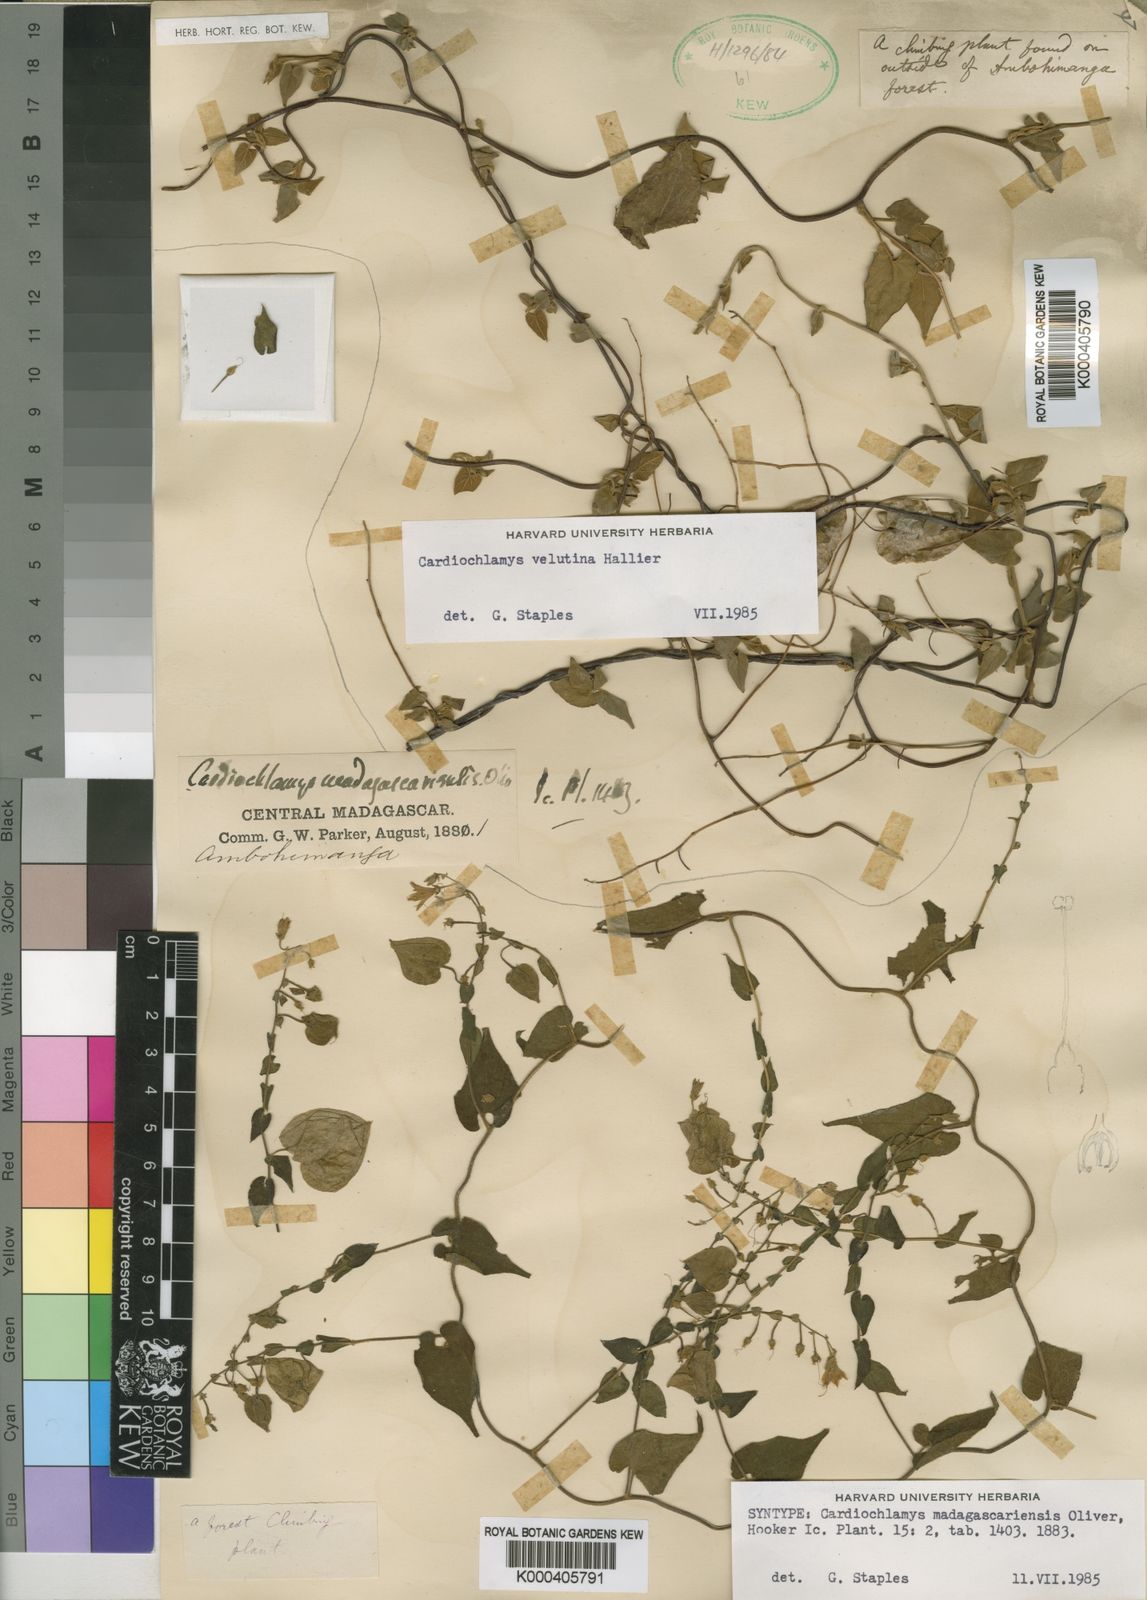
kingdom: Plantae
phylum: Tracheophyta
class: Magnoliopsida
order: Solanales
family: Convolvulaceae
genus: Cardiochlamys
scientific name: Cardiochlamys madagascariensis
